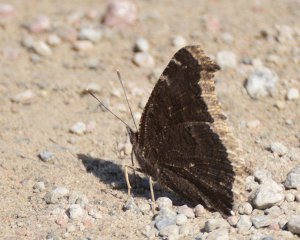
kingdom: Animalia
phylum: Arthropoda
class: Insecta
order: Lepidoptera
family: Nymphalidae
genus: Nymphalis
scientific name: Nymphalis antiopa
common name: Mourning Cloak
